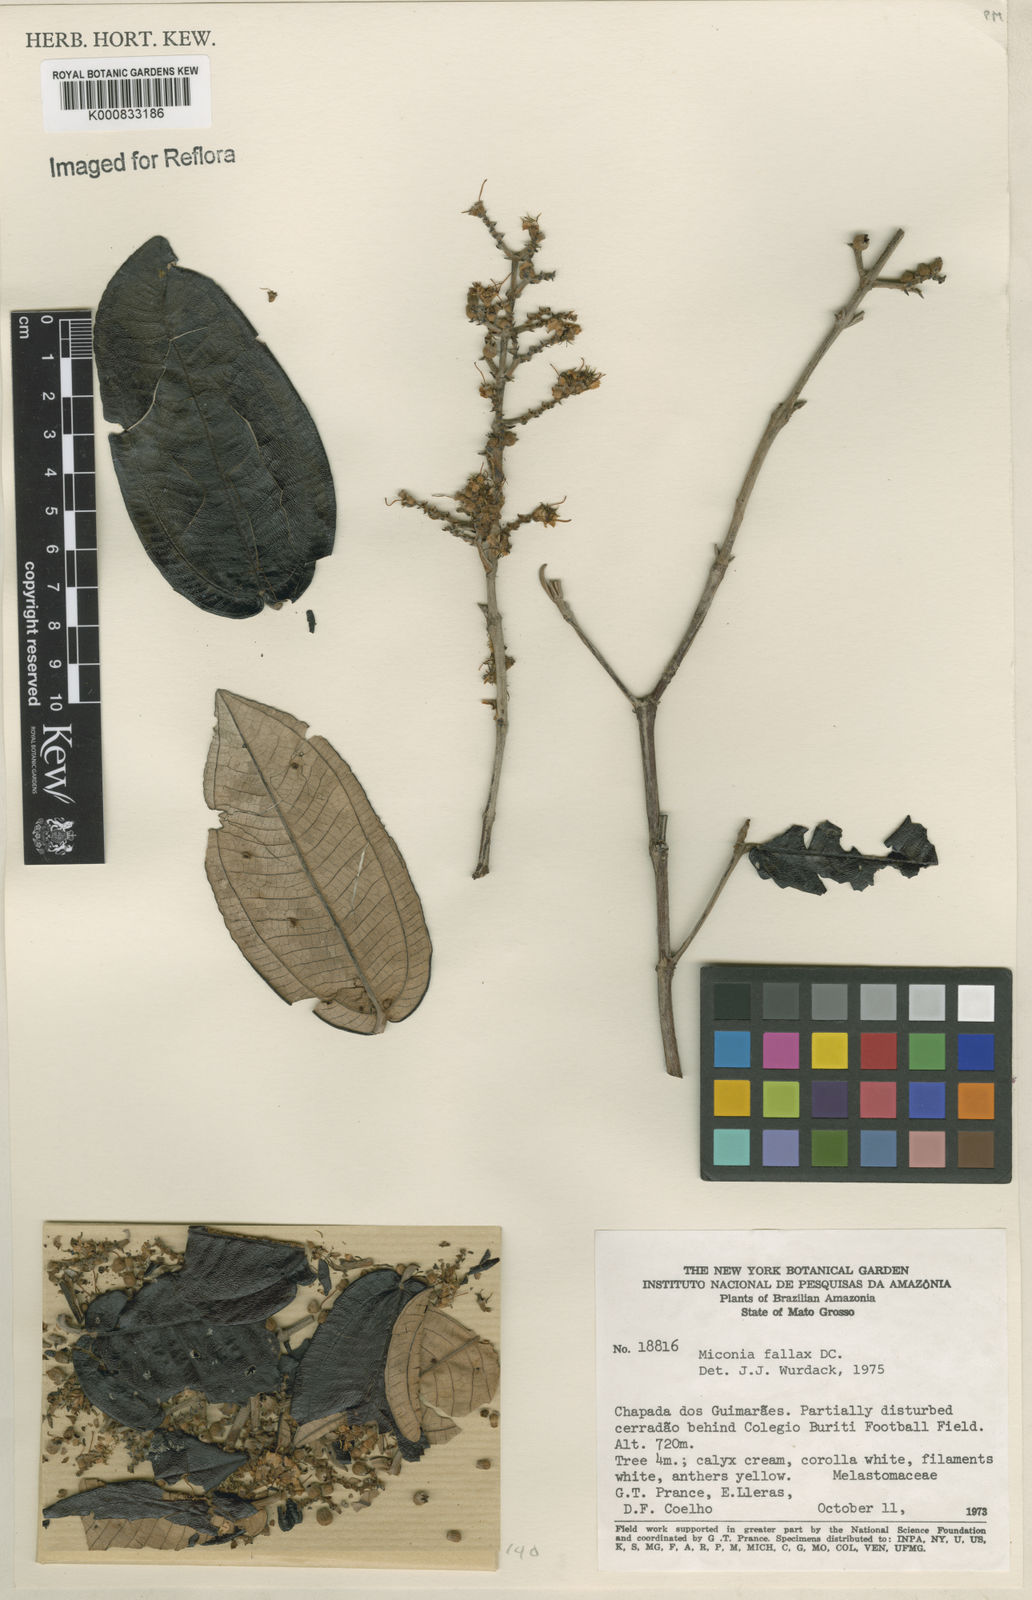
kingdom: Plantae
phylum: Tracheophyta
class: Magnoliopsida
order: Myrtales
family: Melastomataceae
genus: Miconia
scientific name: Miconia fallax
